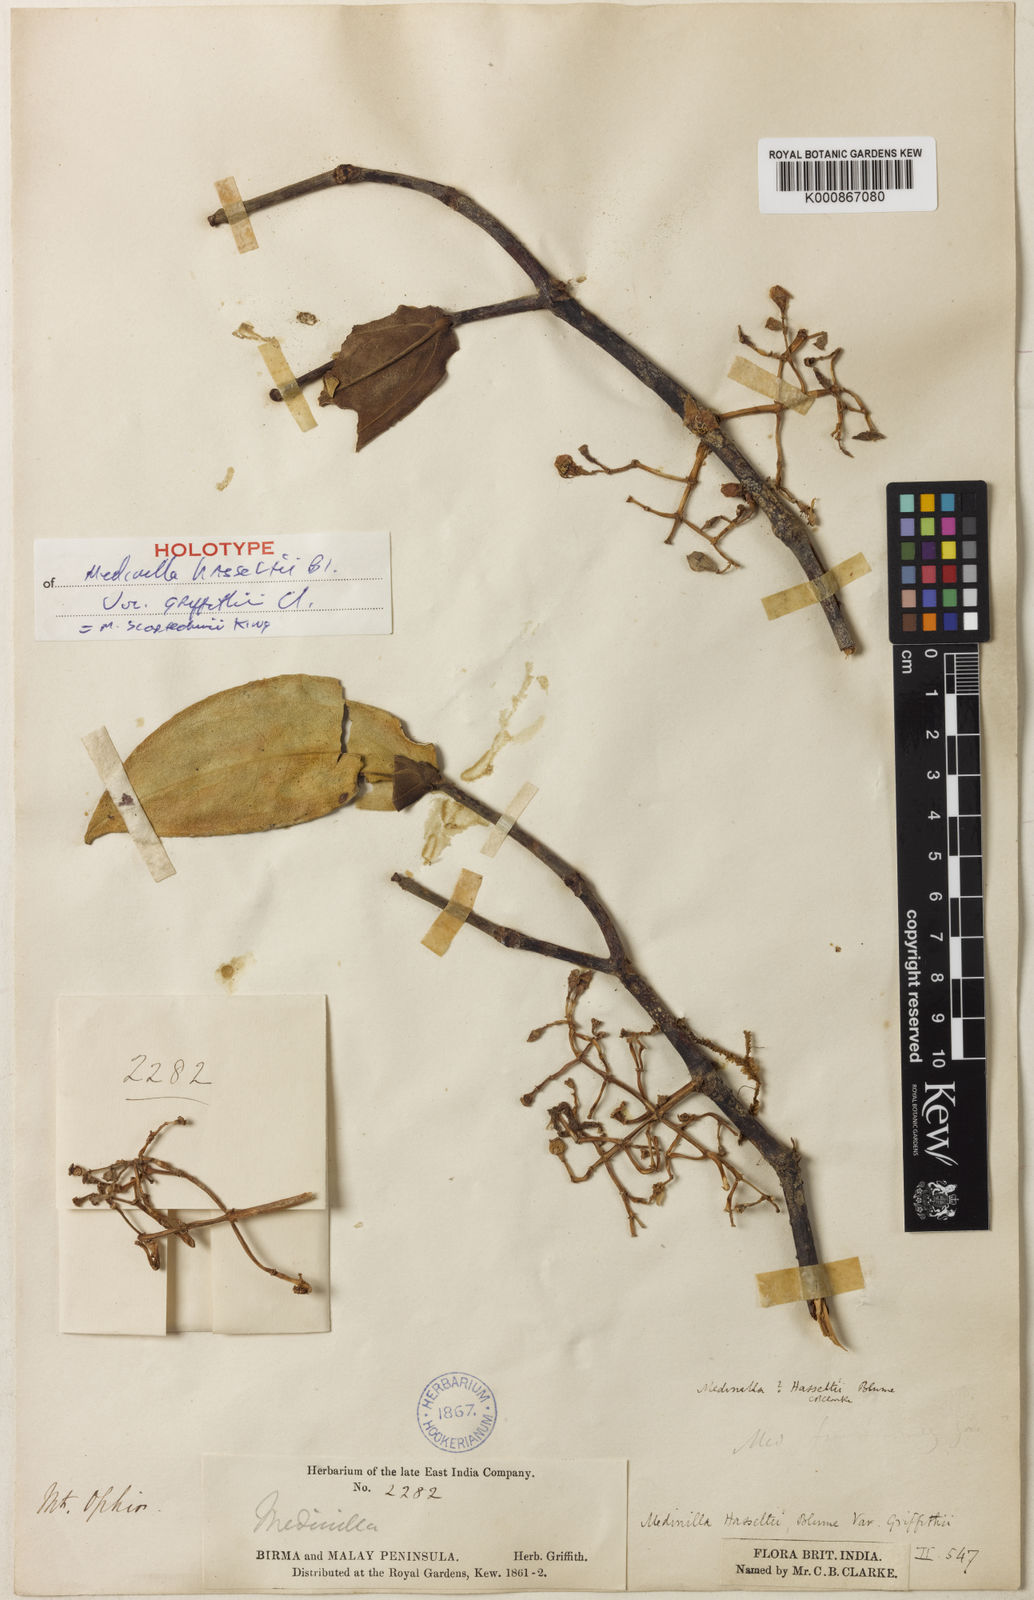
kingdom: Plantae
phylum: Tracheophyta
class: Magnoliopsida
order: Myrtales
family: Melastomataceae
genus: Medinilla
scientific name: Medinilla scortechinii
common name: Coral medinilla
